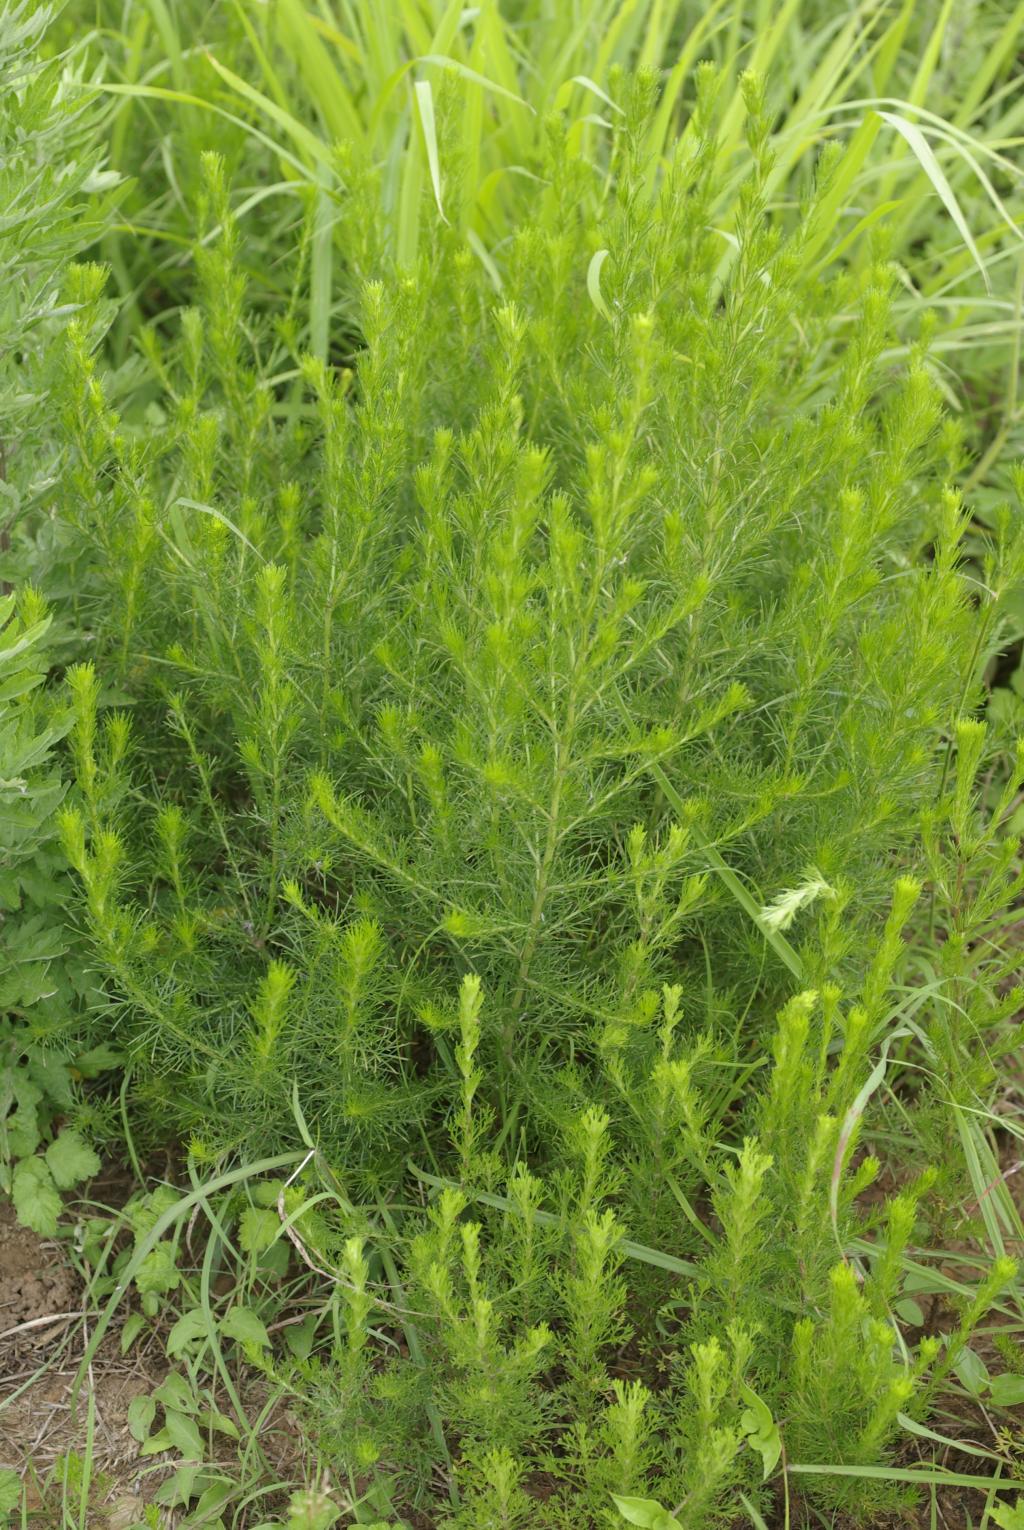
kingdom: Plantae
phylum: Tracheophyta
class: Magnoliopsida
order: Asterales
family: Asteraceae
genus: Artemisia
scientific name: Artemisia capillaris
